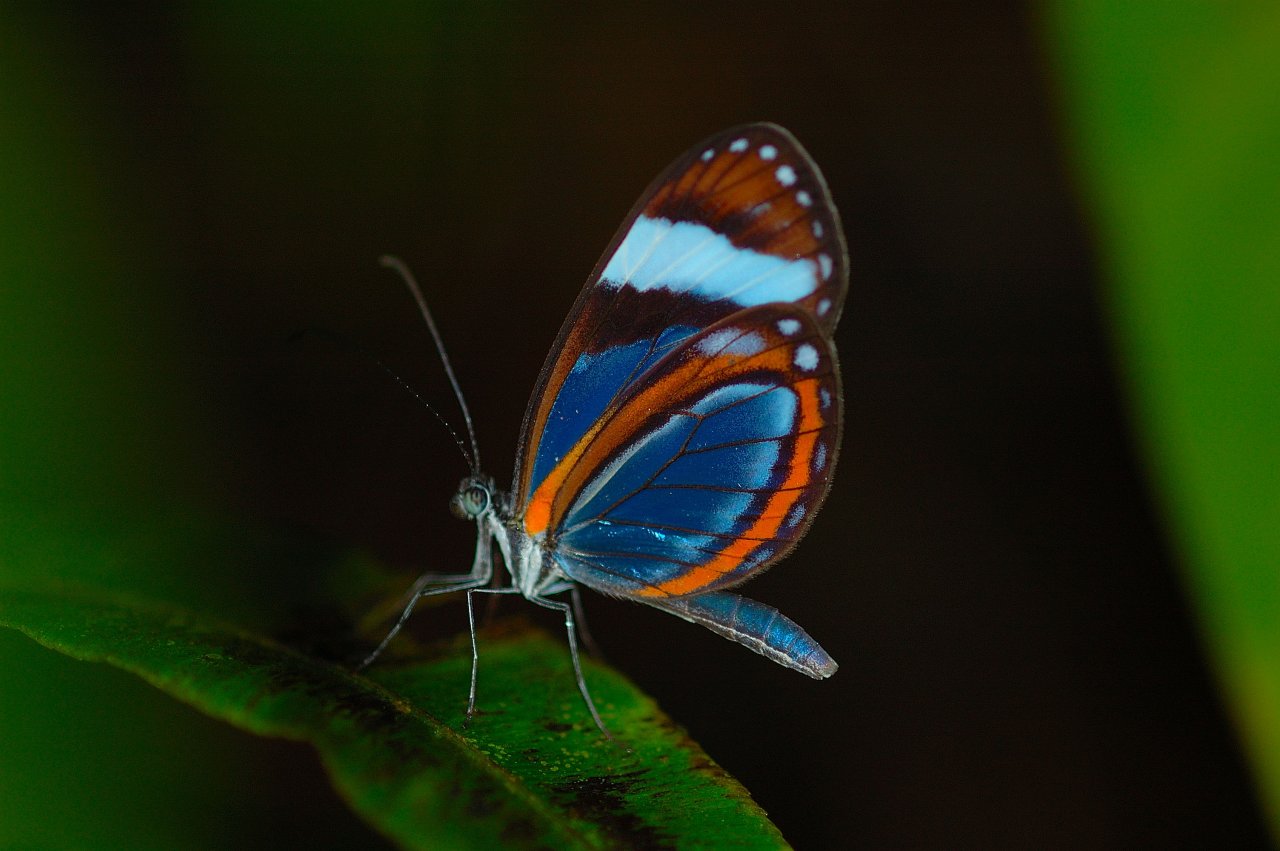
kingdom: Animalia
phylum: Arthropoda
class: Insecta
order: Lepidoptera
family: Pieridae
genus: Dismorphia
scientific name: Dismorphia theucharila
